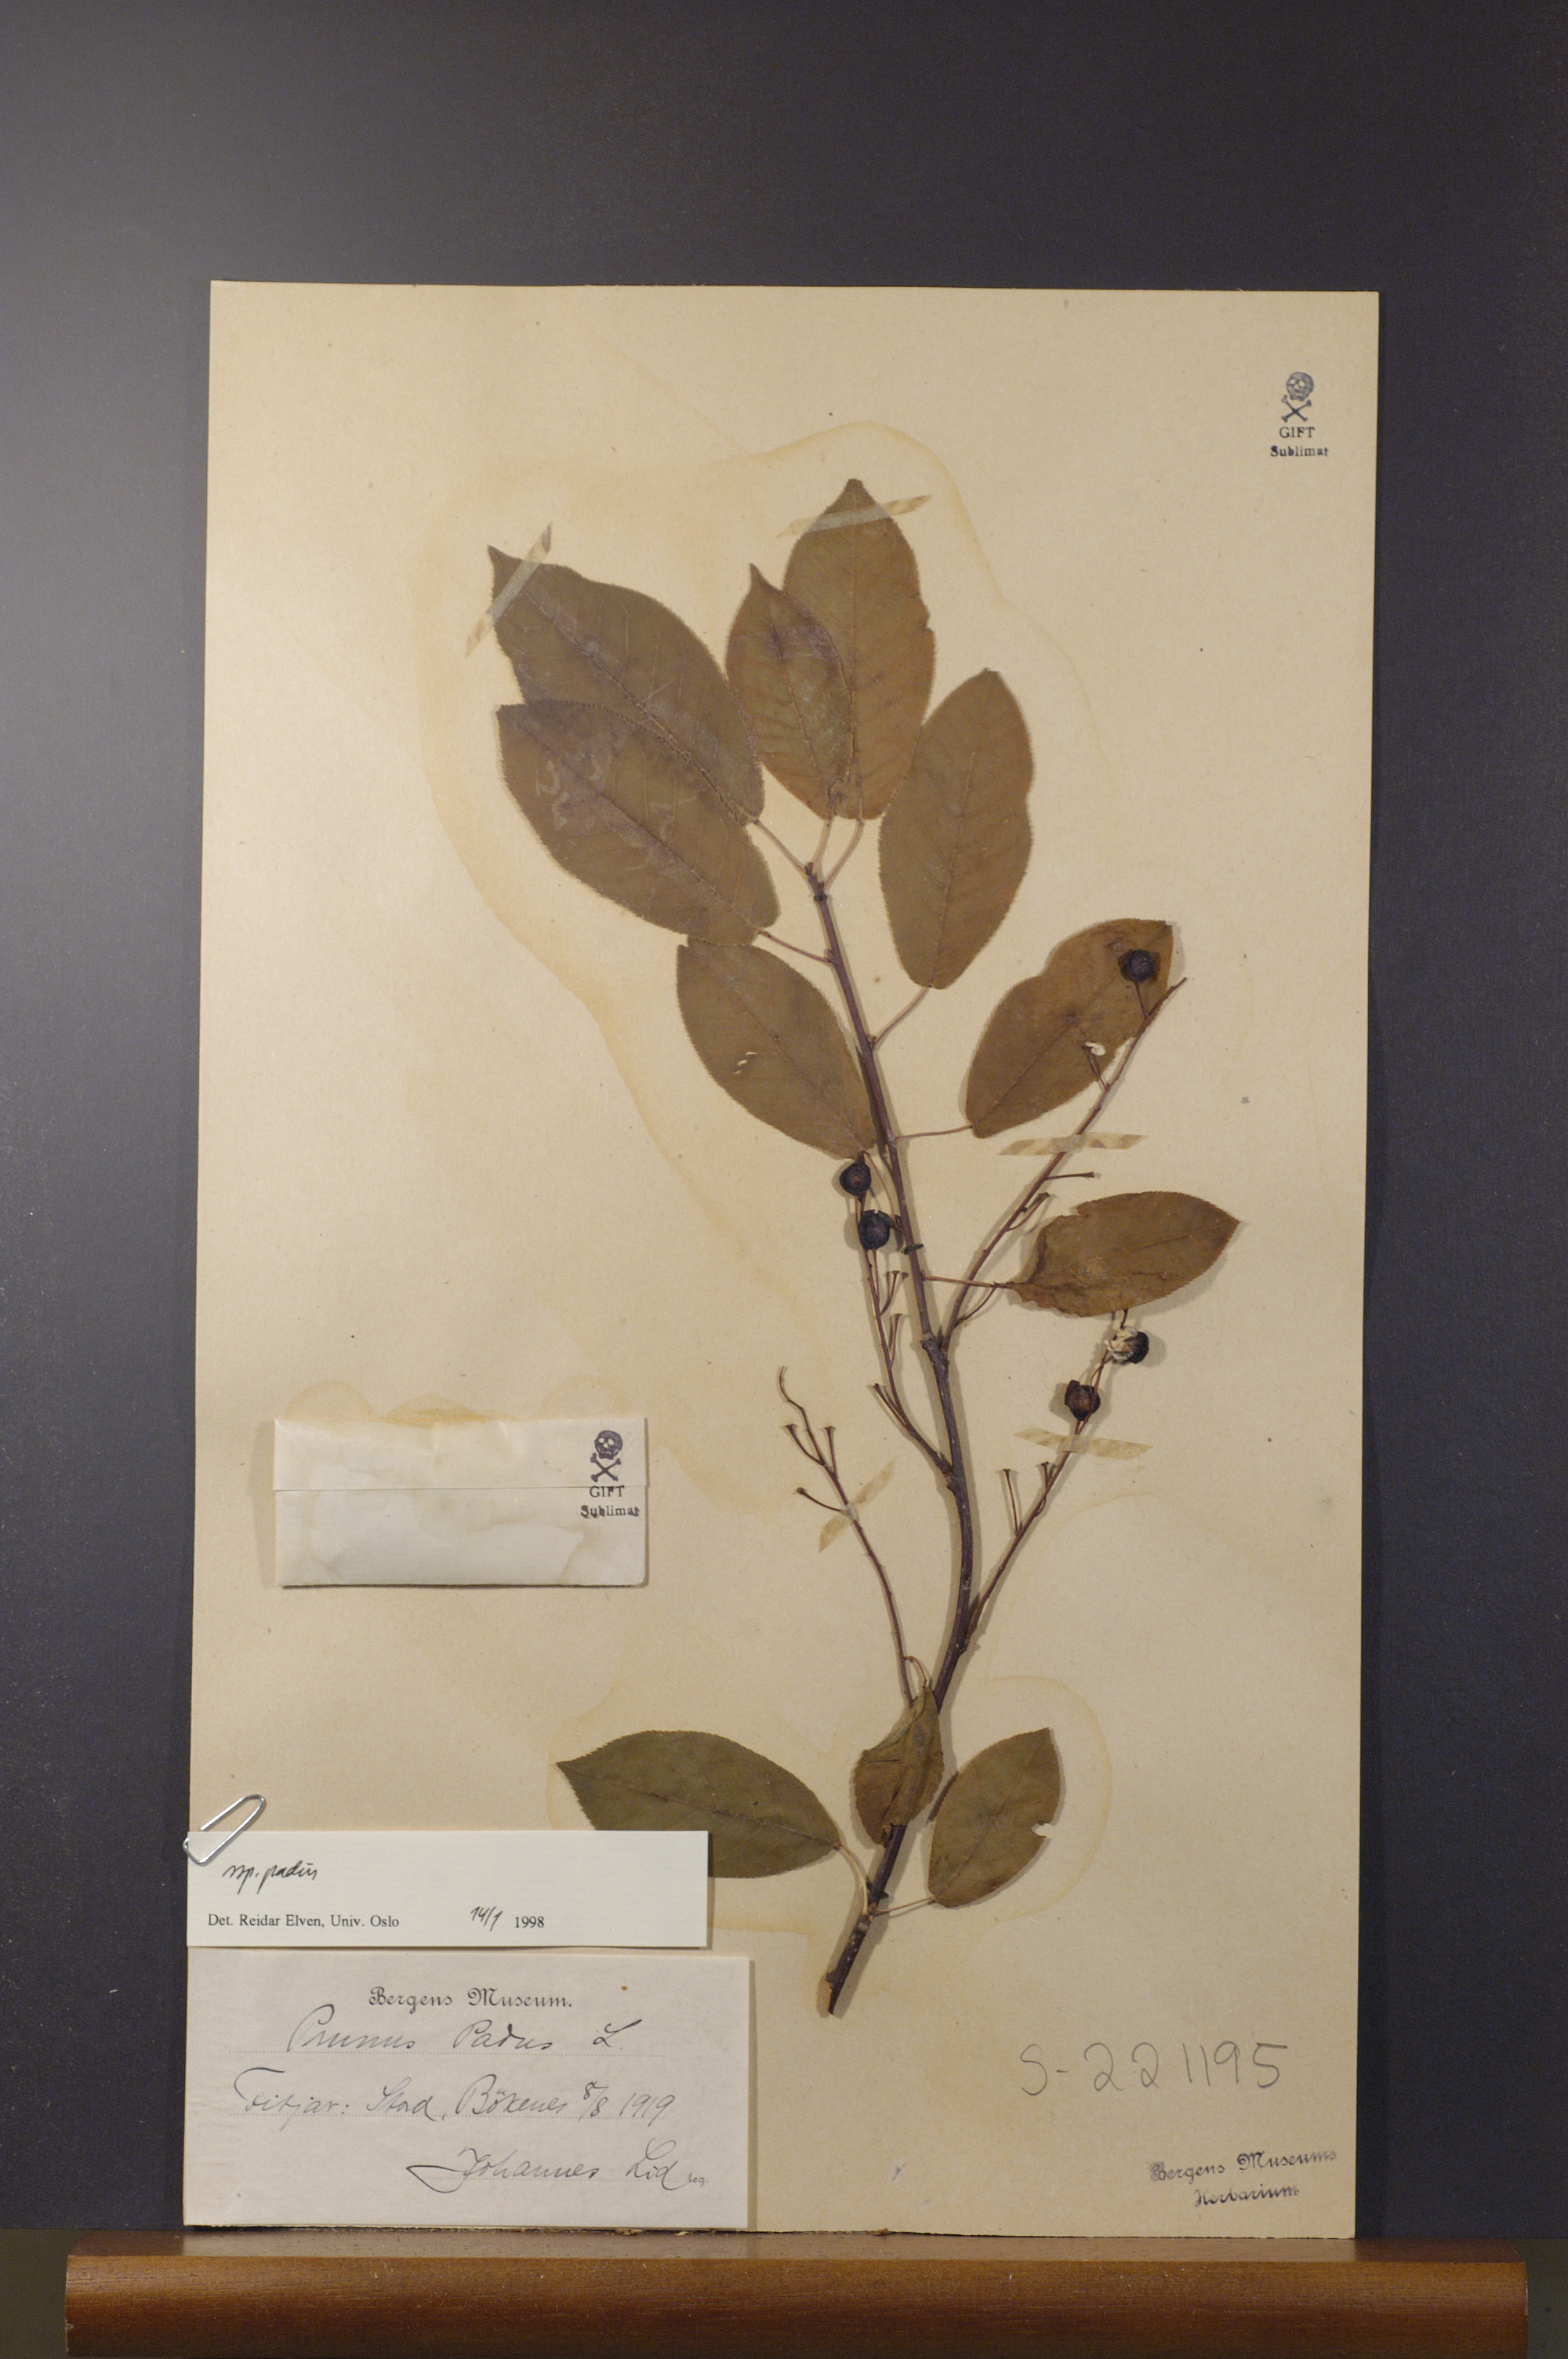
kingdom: Plantae
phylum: Tracheophyta
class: Magnoliopsida
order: Rosales
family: Rosaceae
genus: Prunus
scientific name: Prunus padus
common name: Bird cherry
